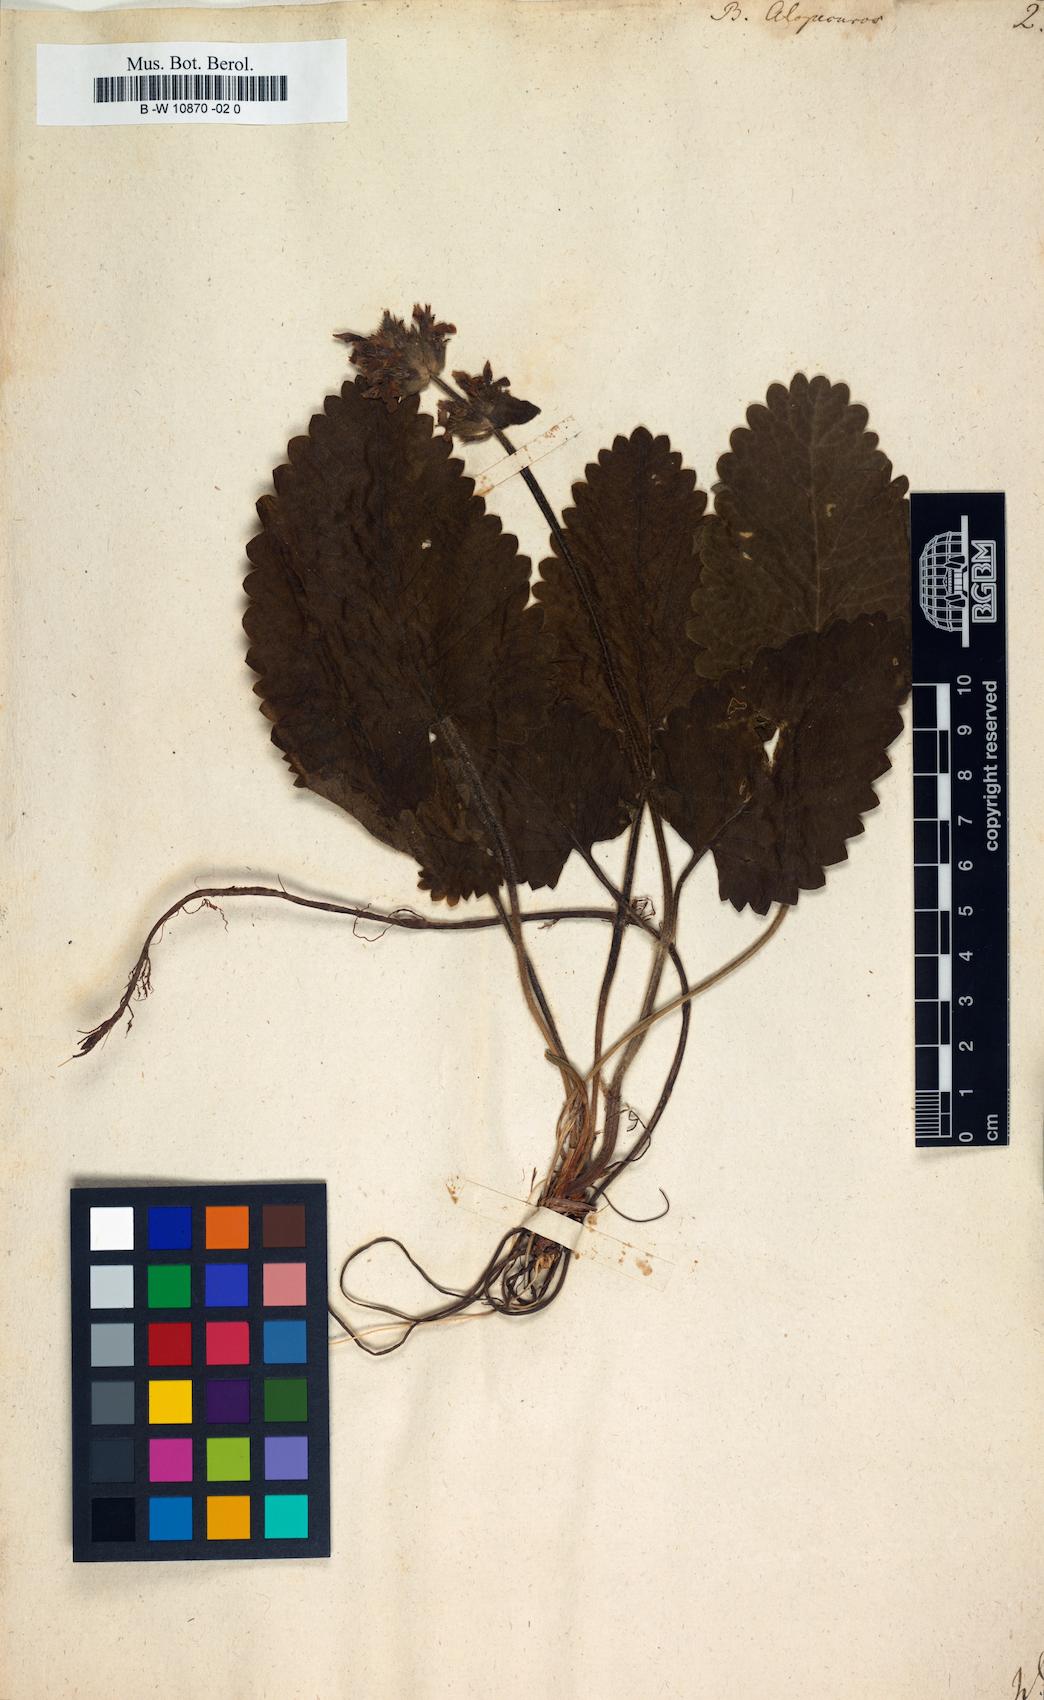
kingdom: Plantae
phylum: Tracheophyta
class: Magnoliopsida
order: Lamiales
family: Lamiaceae
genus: Betonica
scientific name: Betonica alopecuros
